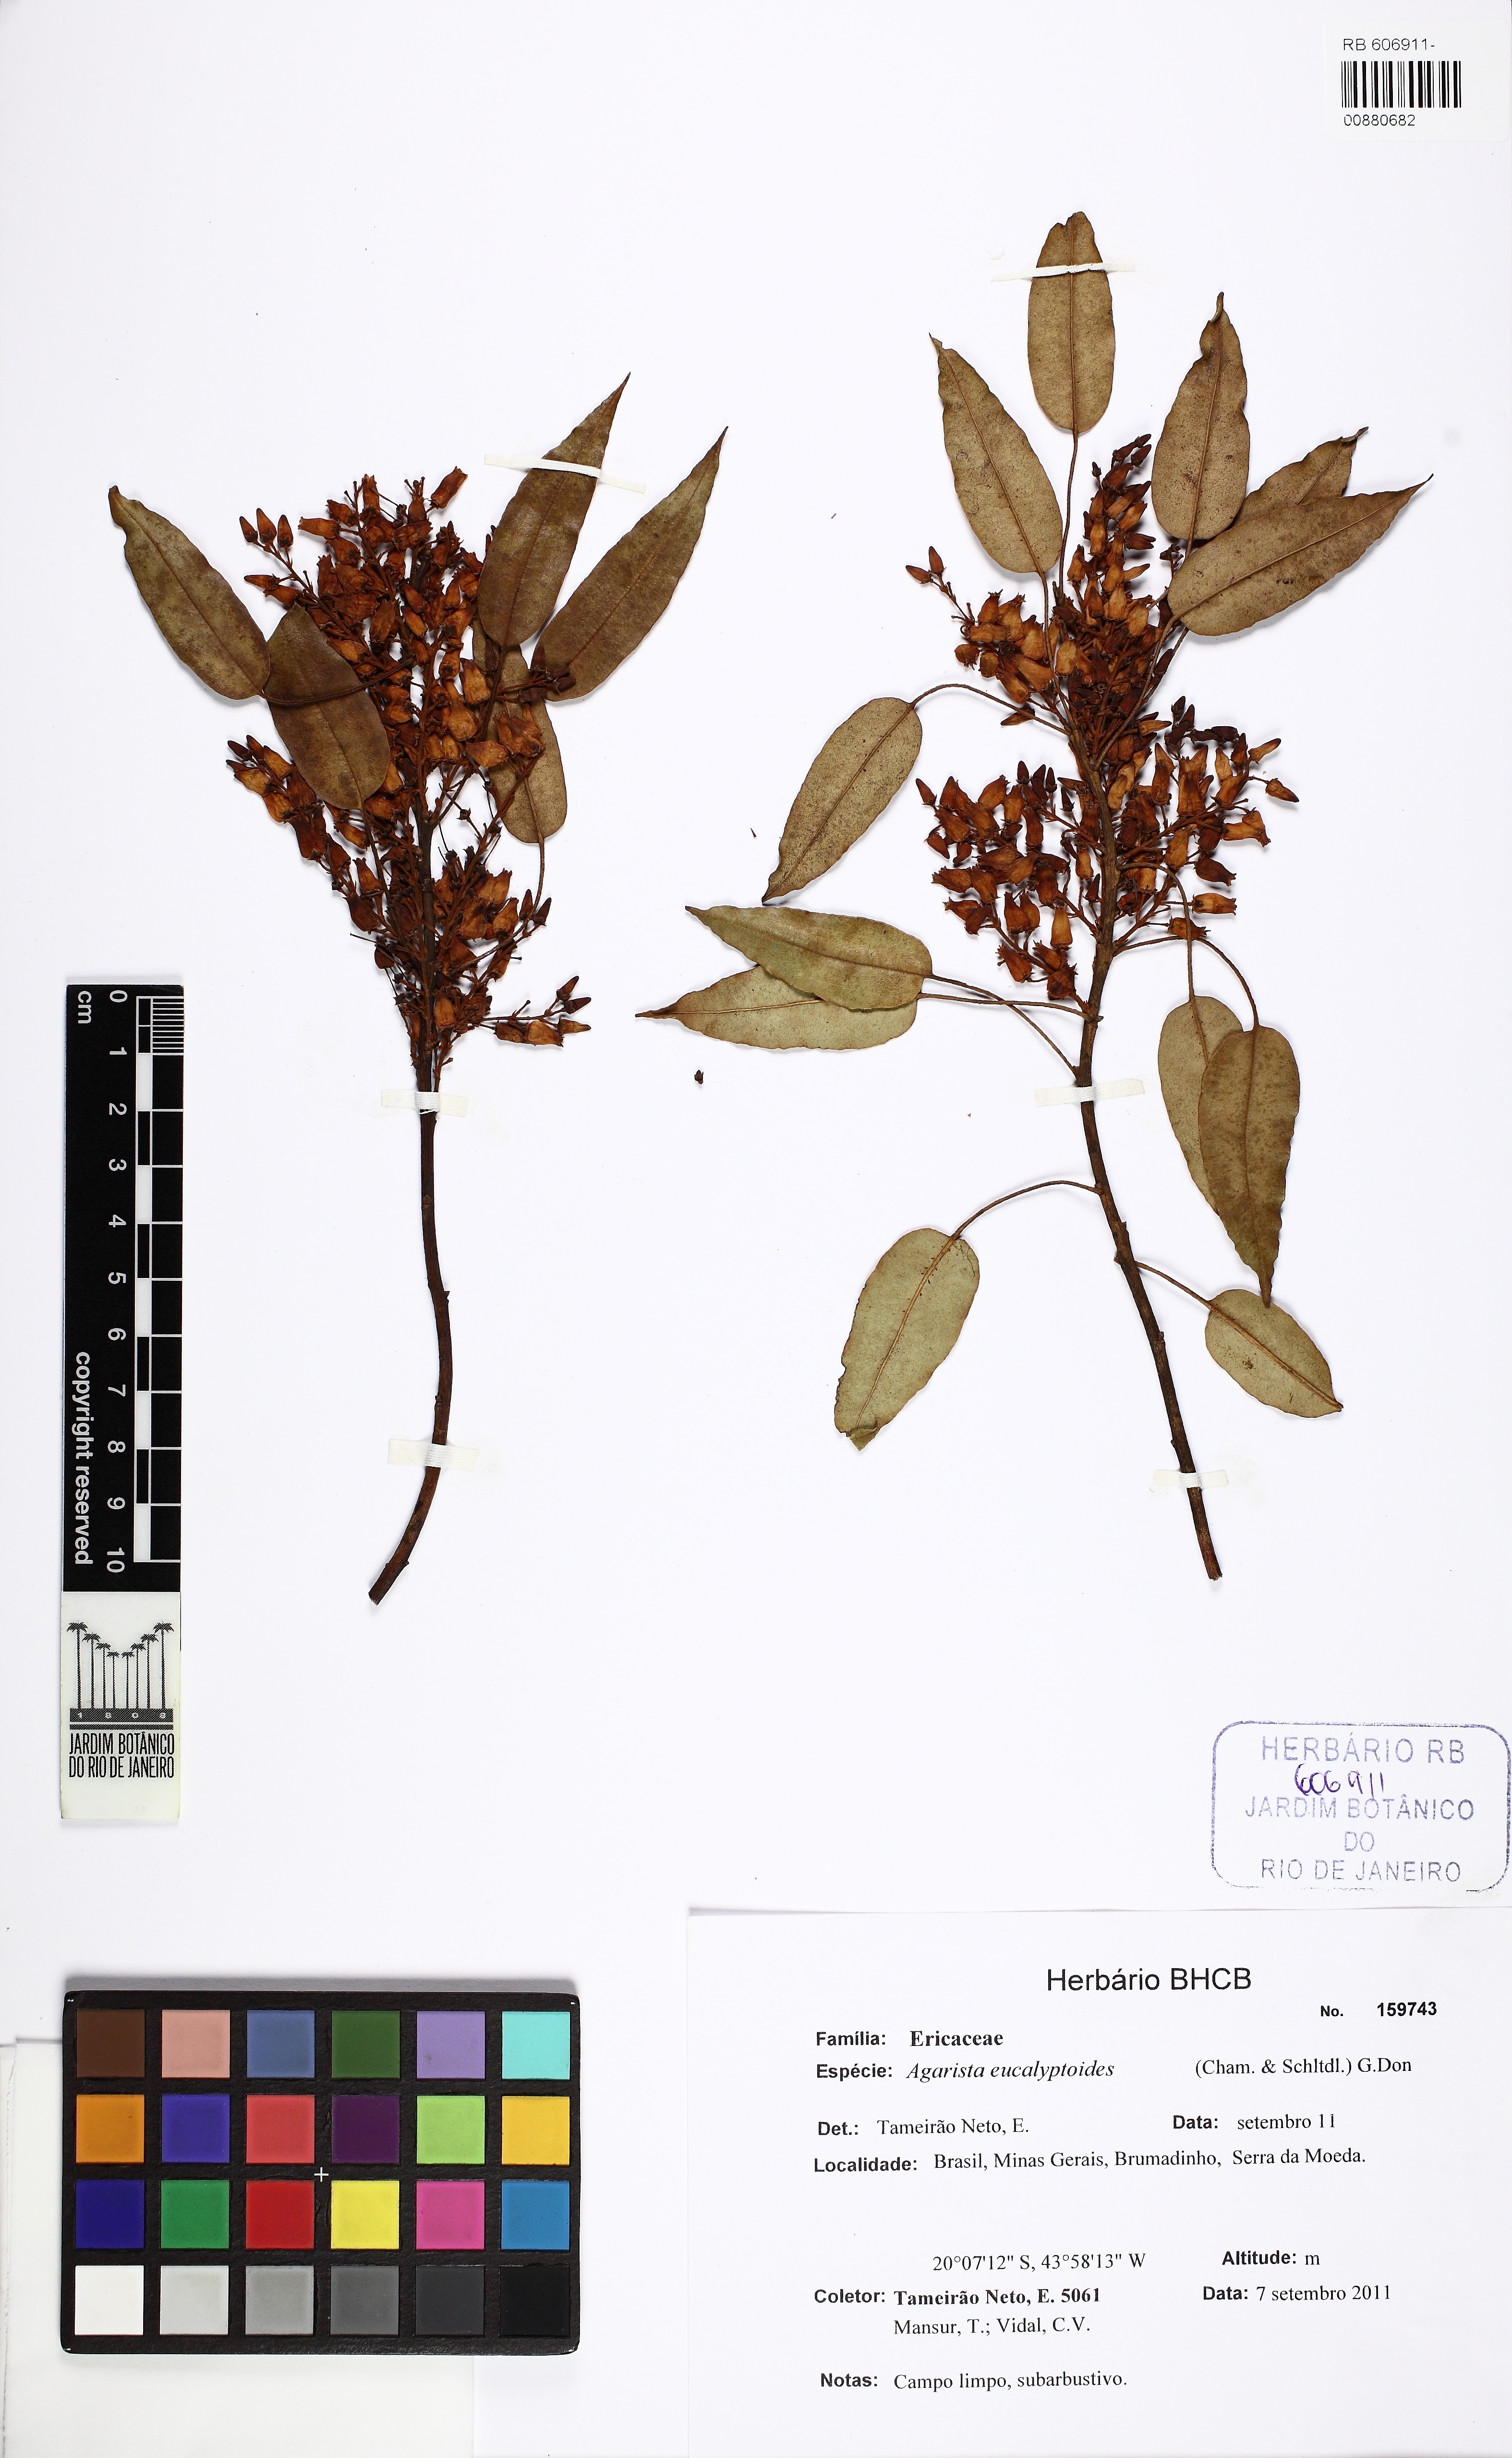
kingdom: Plantae
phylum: Tracheophyta
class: Magnoliopsida
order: Ericales
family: Ericaceae
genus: Agarista
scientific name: Agarista eucalyptoides
